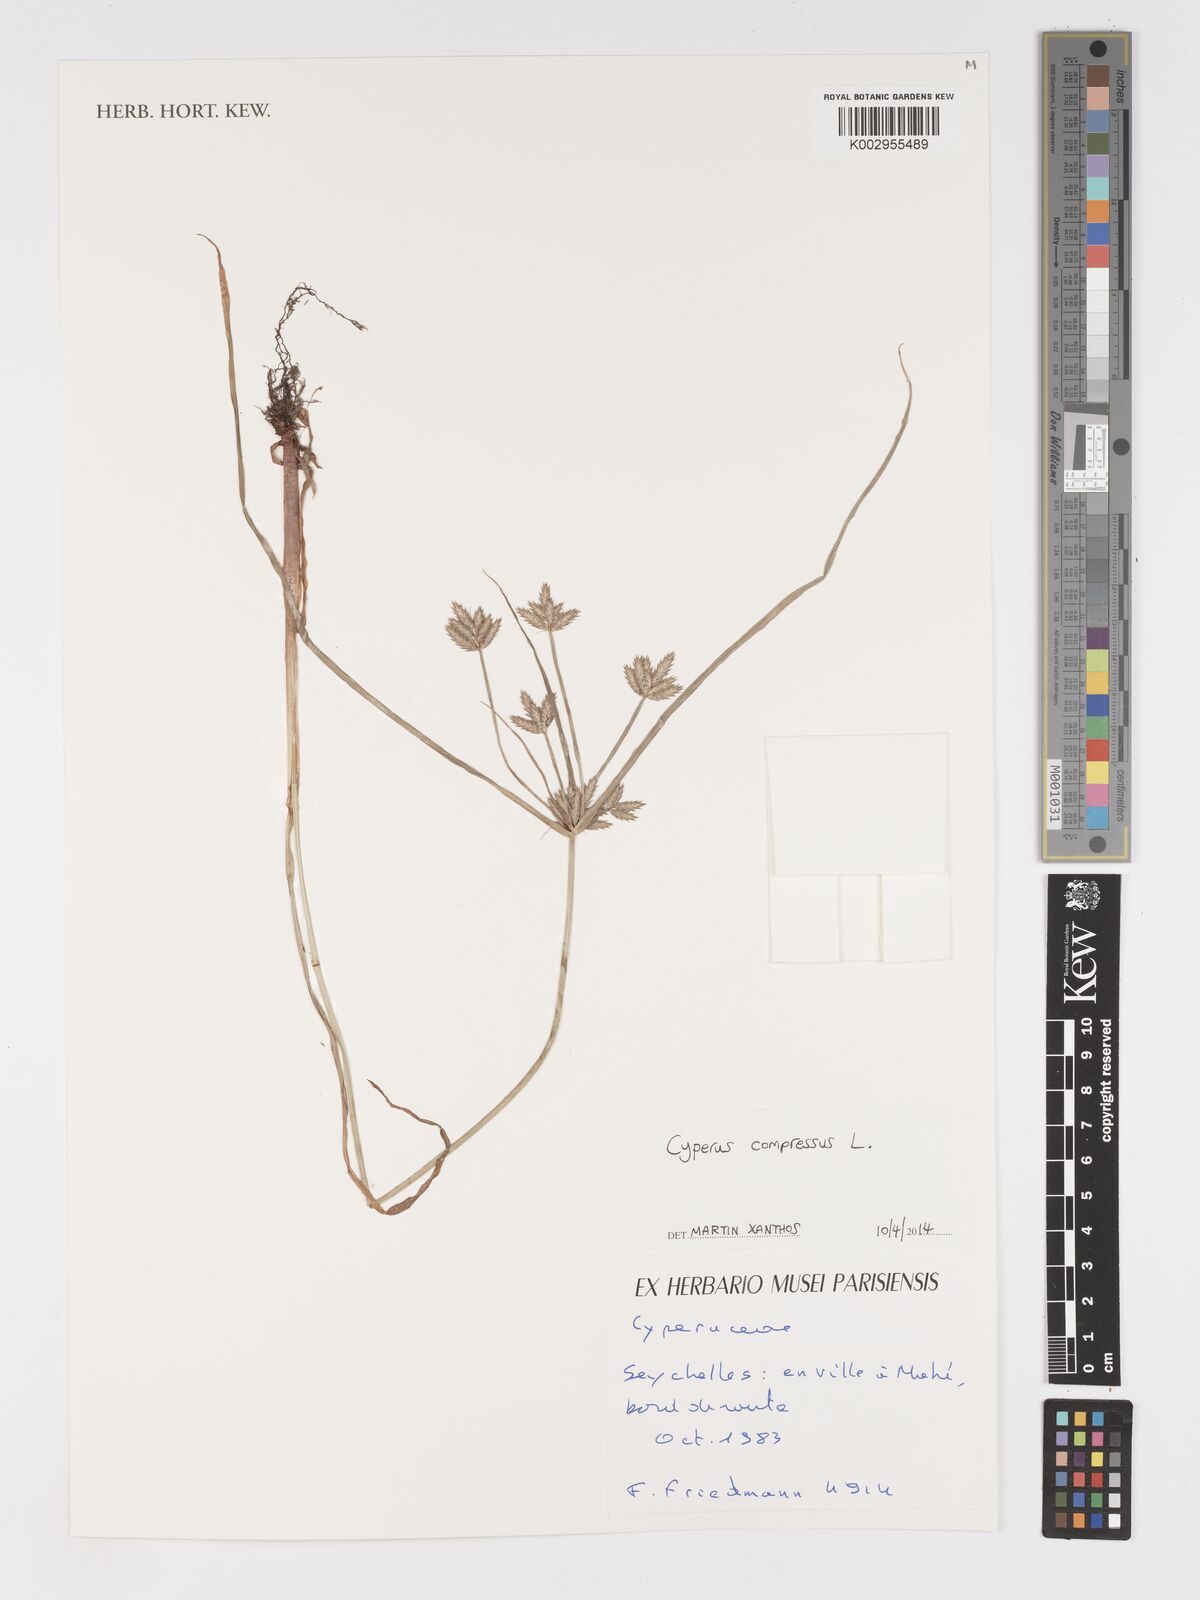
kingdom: Plantae
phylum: Tracheophyta
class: Liliopsida
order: Poales
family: Cyperaceae
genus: Cyperus
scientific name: Cyperus compressus
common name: Poorland flatsedge
